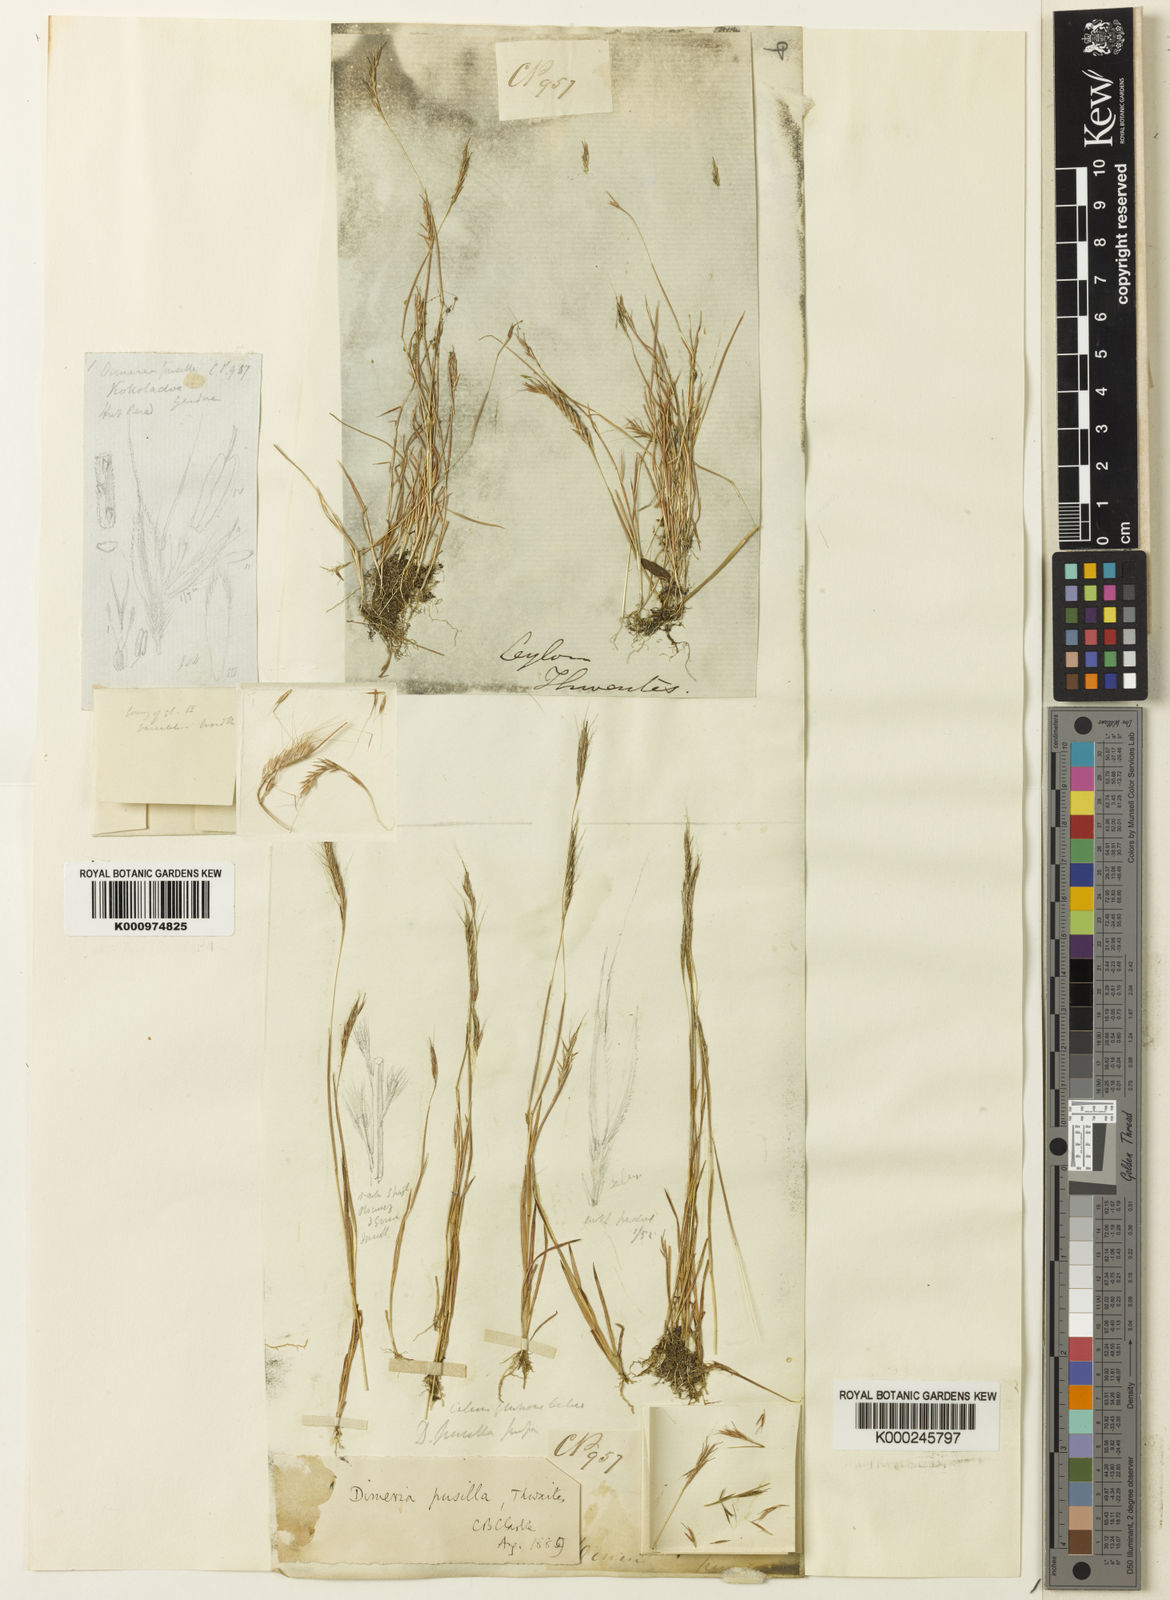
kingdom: Plantae
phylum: Tracheophyta
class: Liliopsida
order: Poales
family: Poaceae
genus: Dimeria
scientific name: Dimeria thwaitesii
